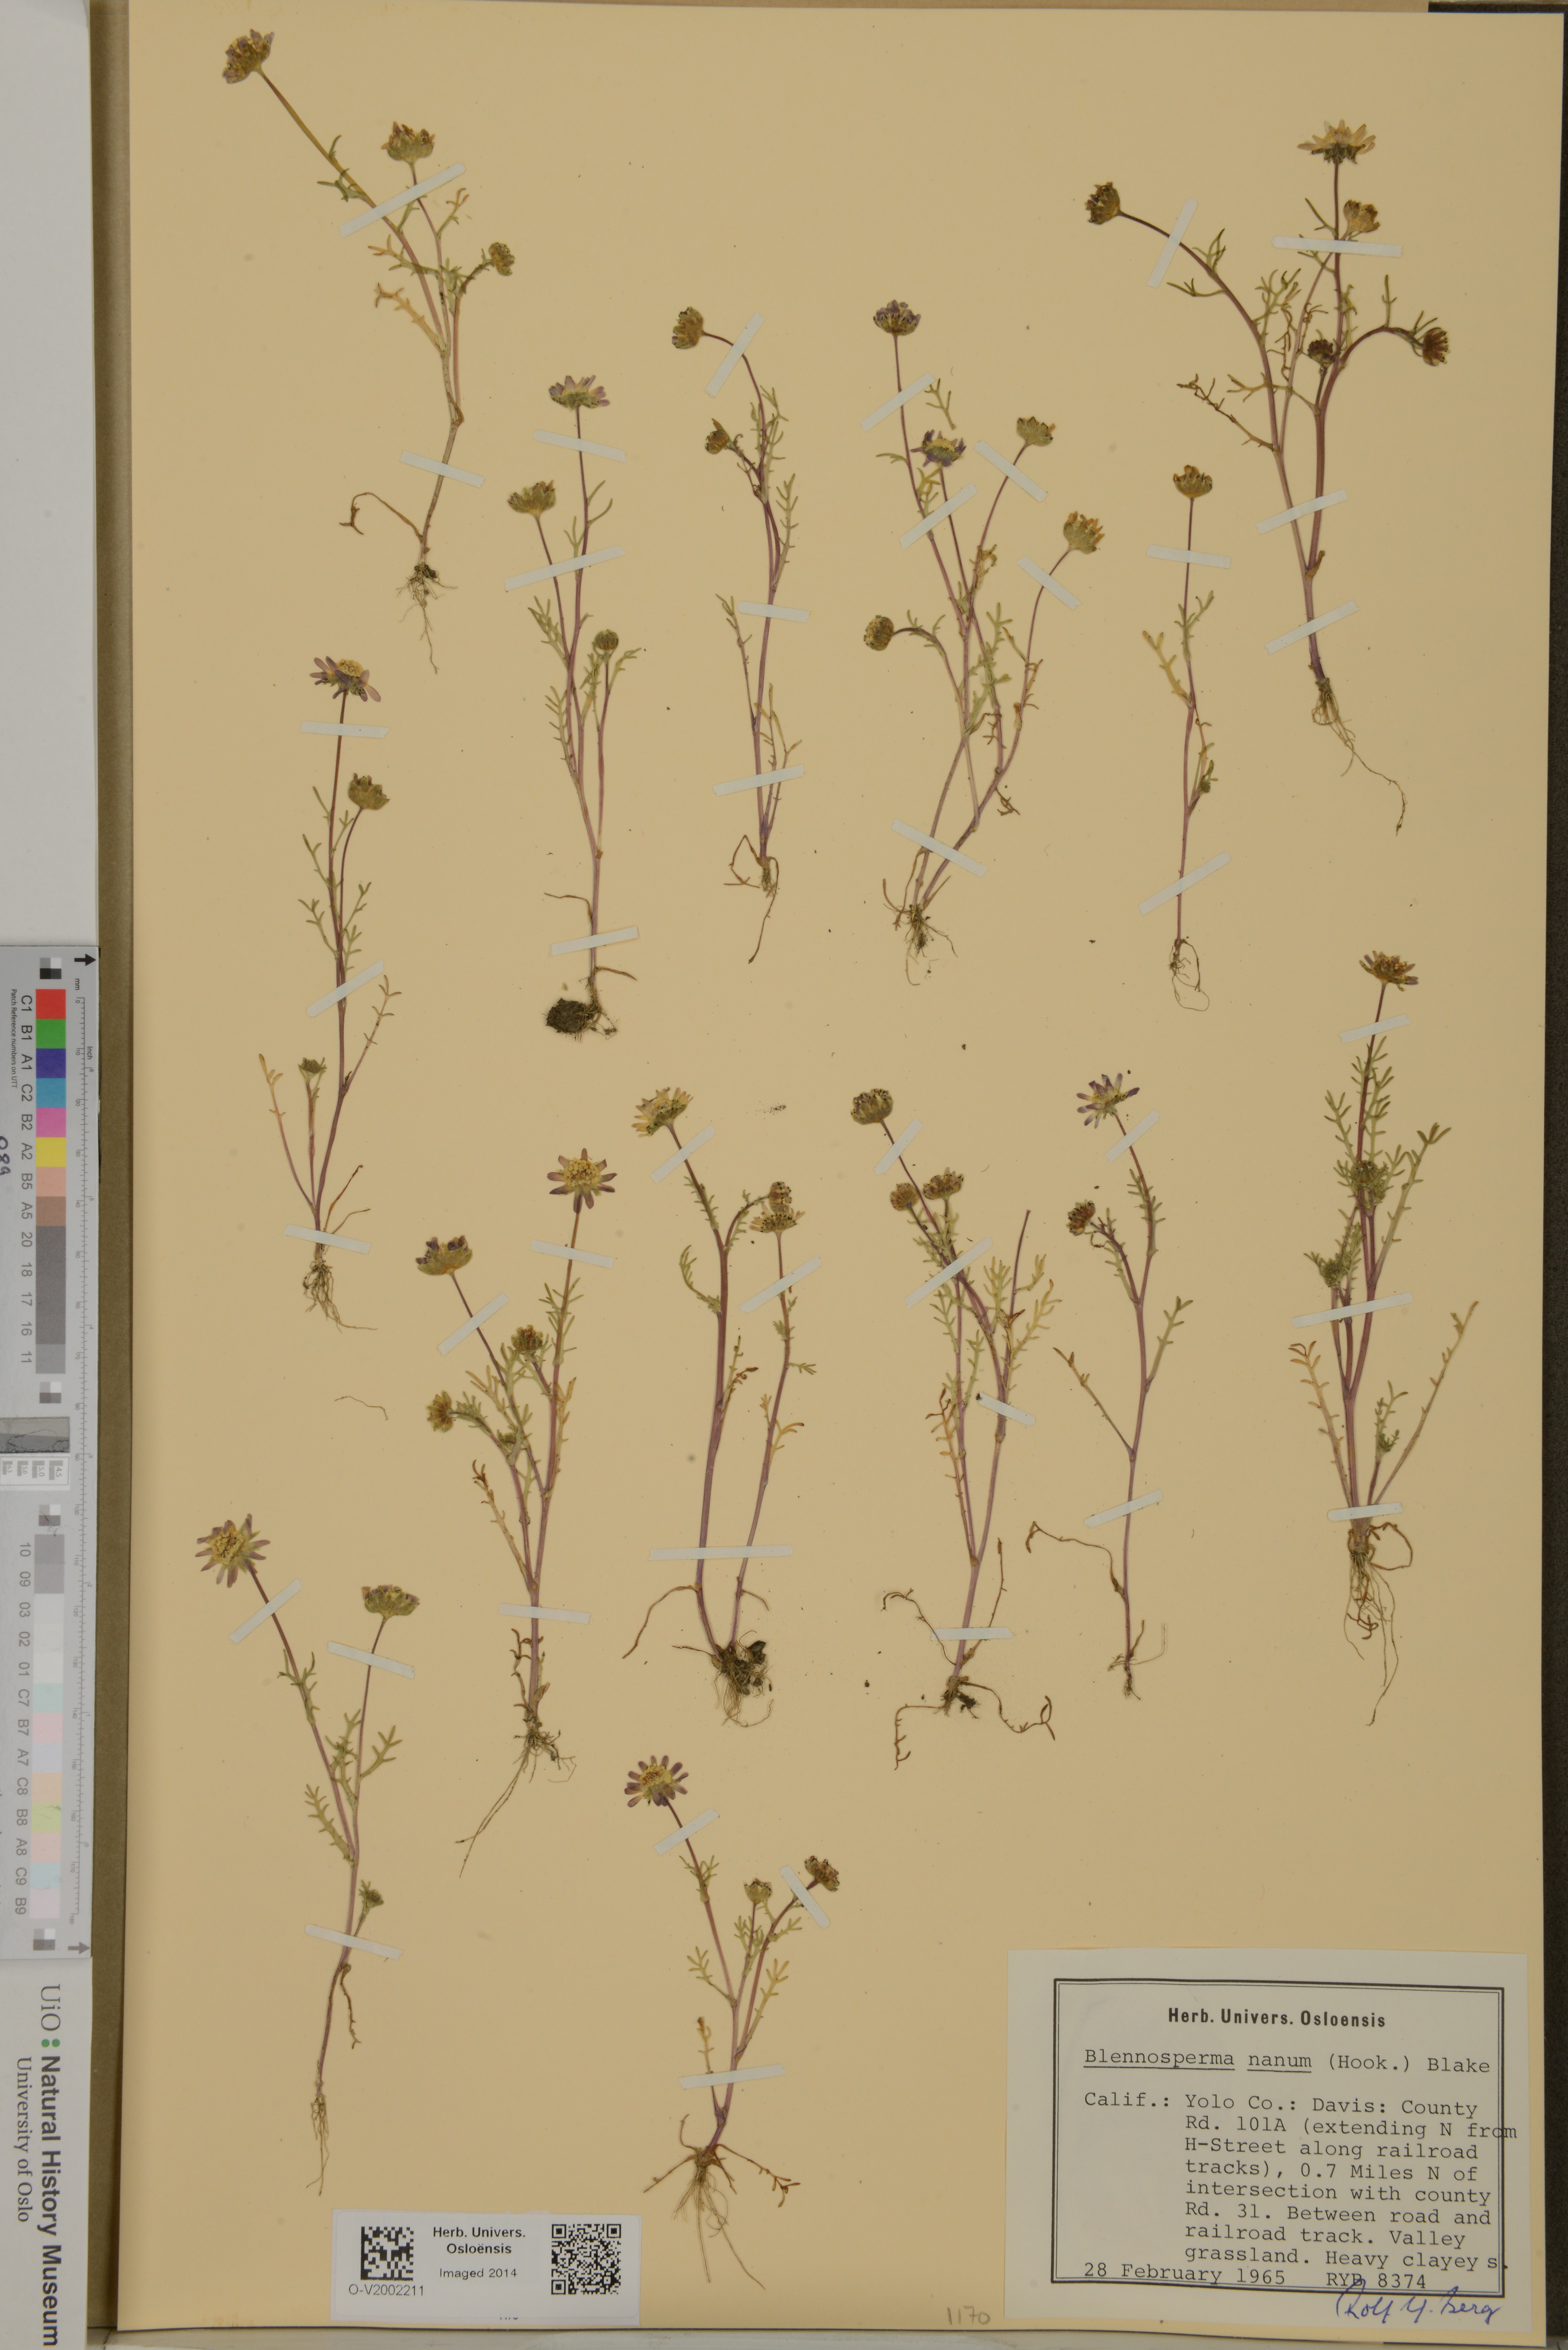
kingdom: Plantae
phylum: Tracheophyta
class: Magnoliopsida
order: Asterales
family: Asteraceae
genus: Blennosperma
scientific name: Blennosperma nanum
